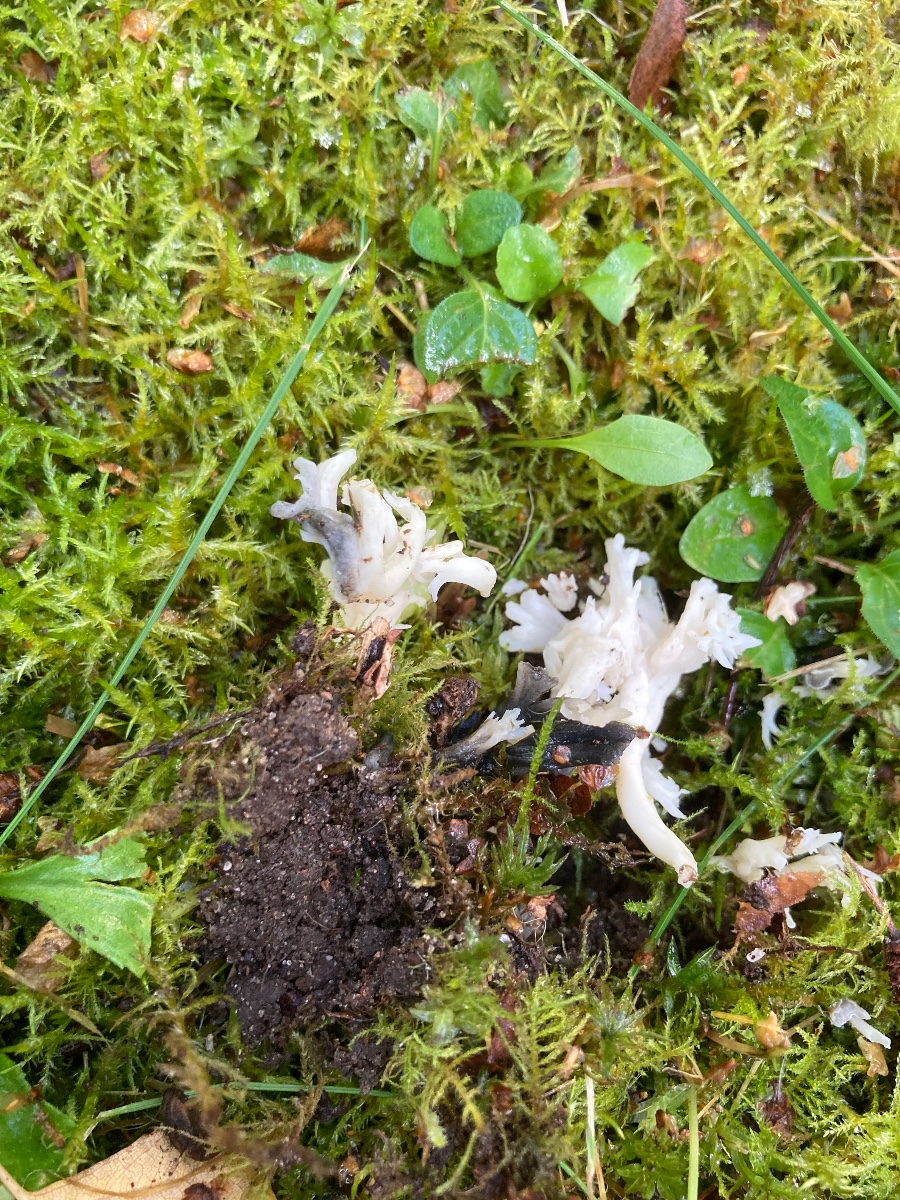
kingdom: Fungi
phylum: Ascomycota
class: Sordariomycetes
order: Sordariales
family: Helminthosphaeriaceae
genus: Helminthosphaeria
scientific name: Helminthosphaeria clavariarum
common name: trold-svampesnyltekerne
